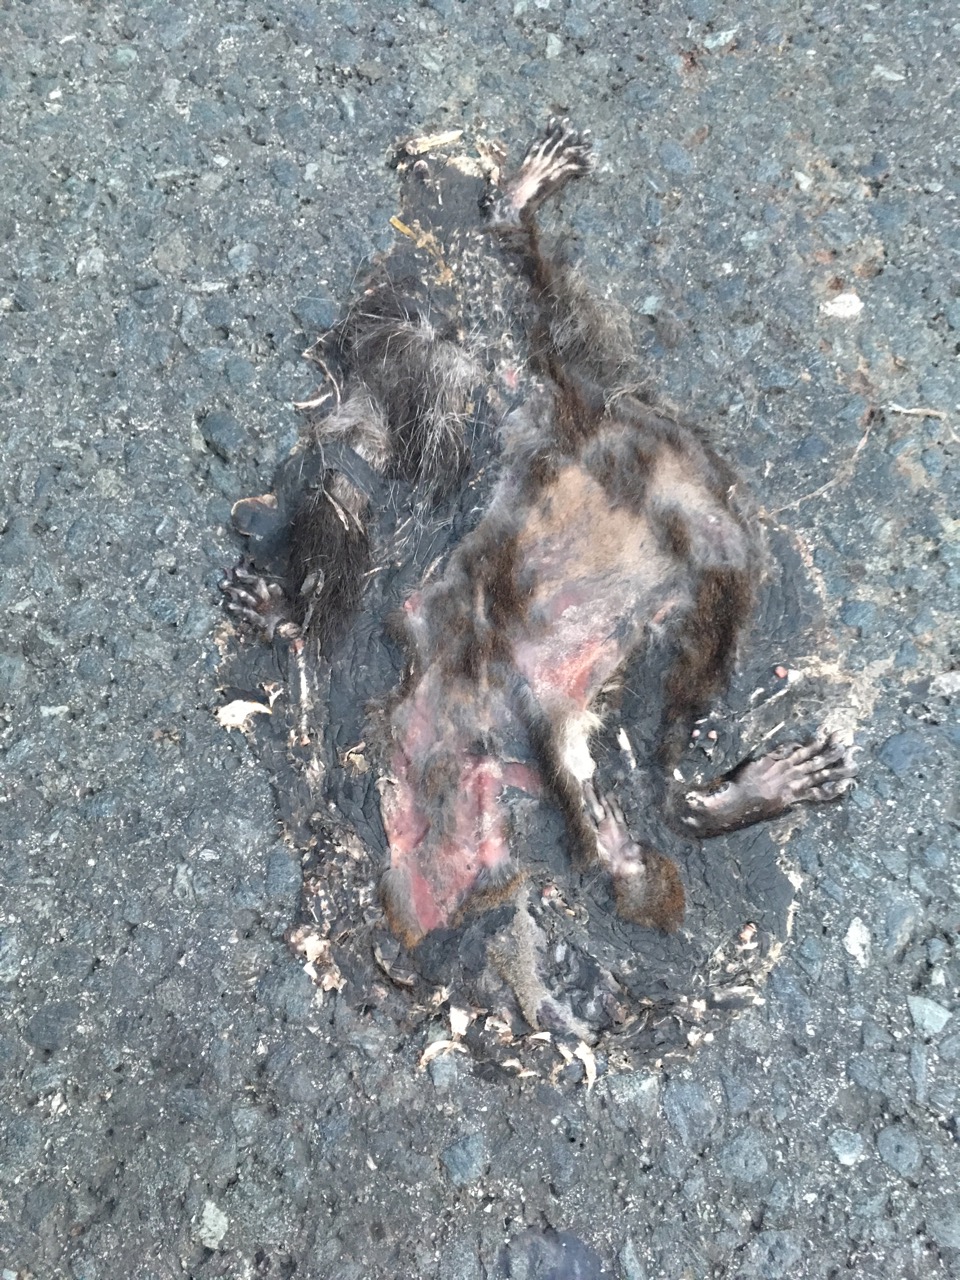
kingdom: Animalia
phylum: Chordata
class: Mammalia
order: Rodentia
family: Sciuridae
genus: Sciurus
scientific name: Sciurus vulgaris
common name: Eurasian red squirrel
